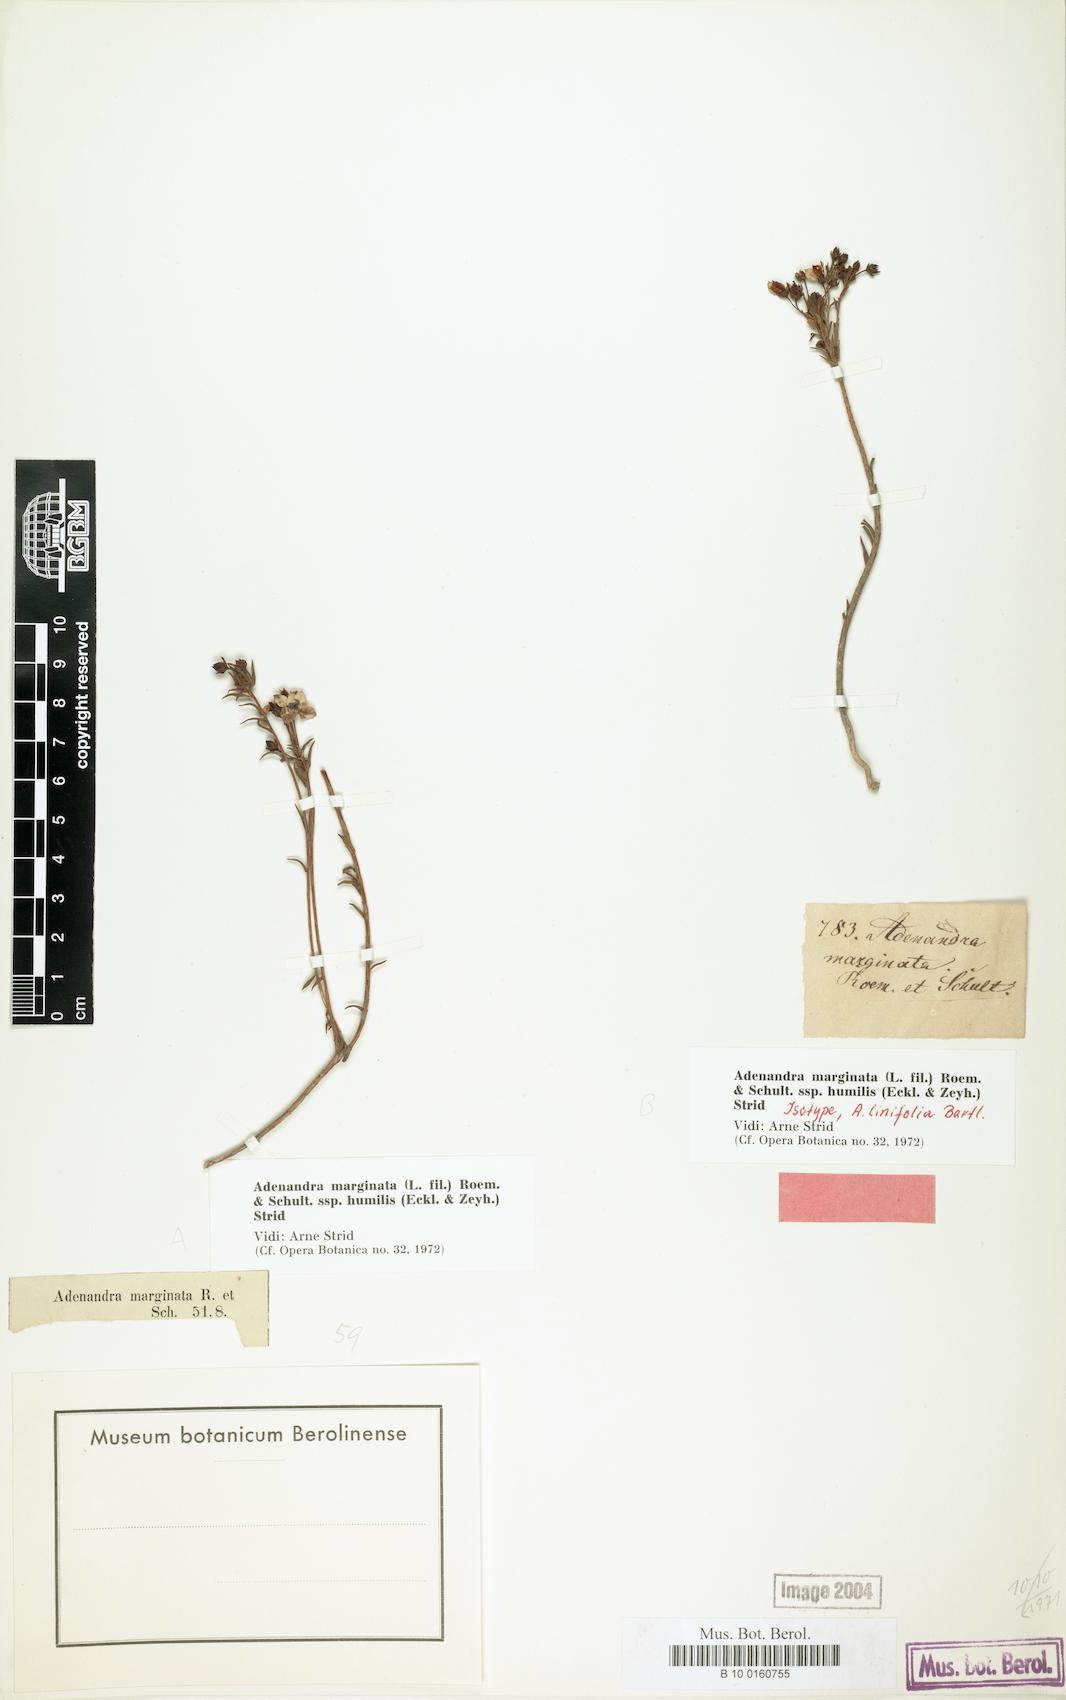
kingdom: Plantae
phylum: Tracheophyta
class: Magnoliopsida
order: Sapindales
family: Rutaceae
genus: Adenandra
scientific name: Adenandra marginata
